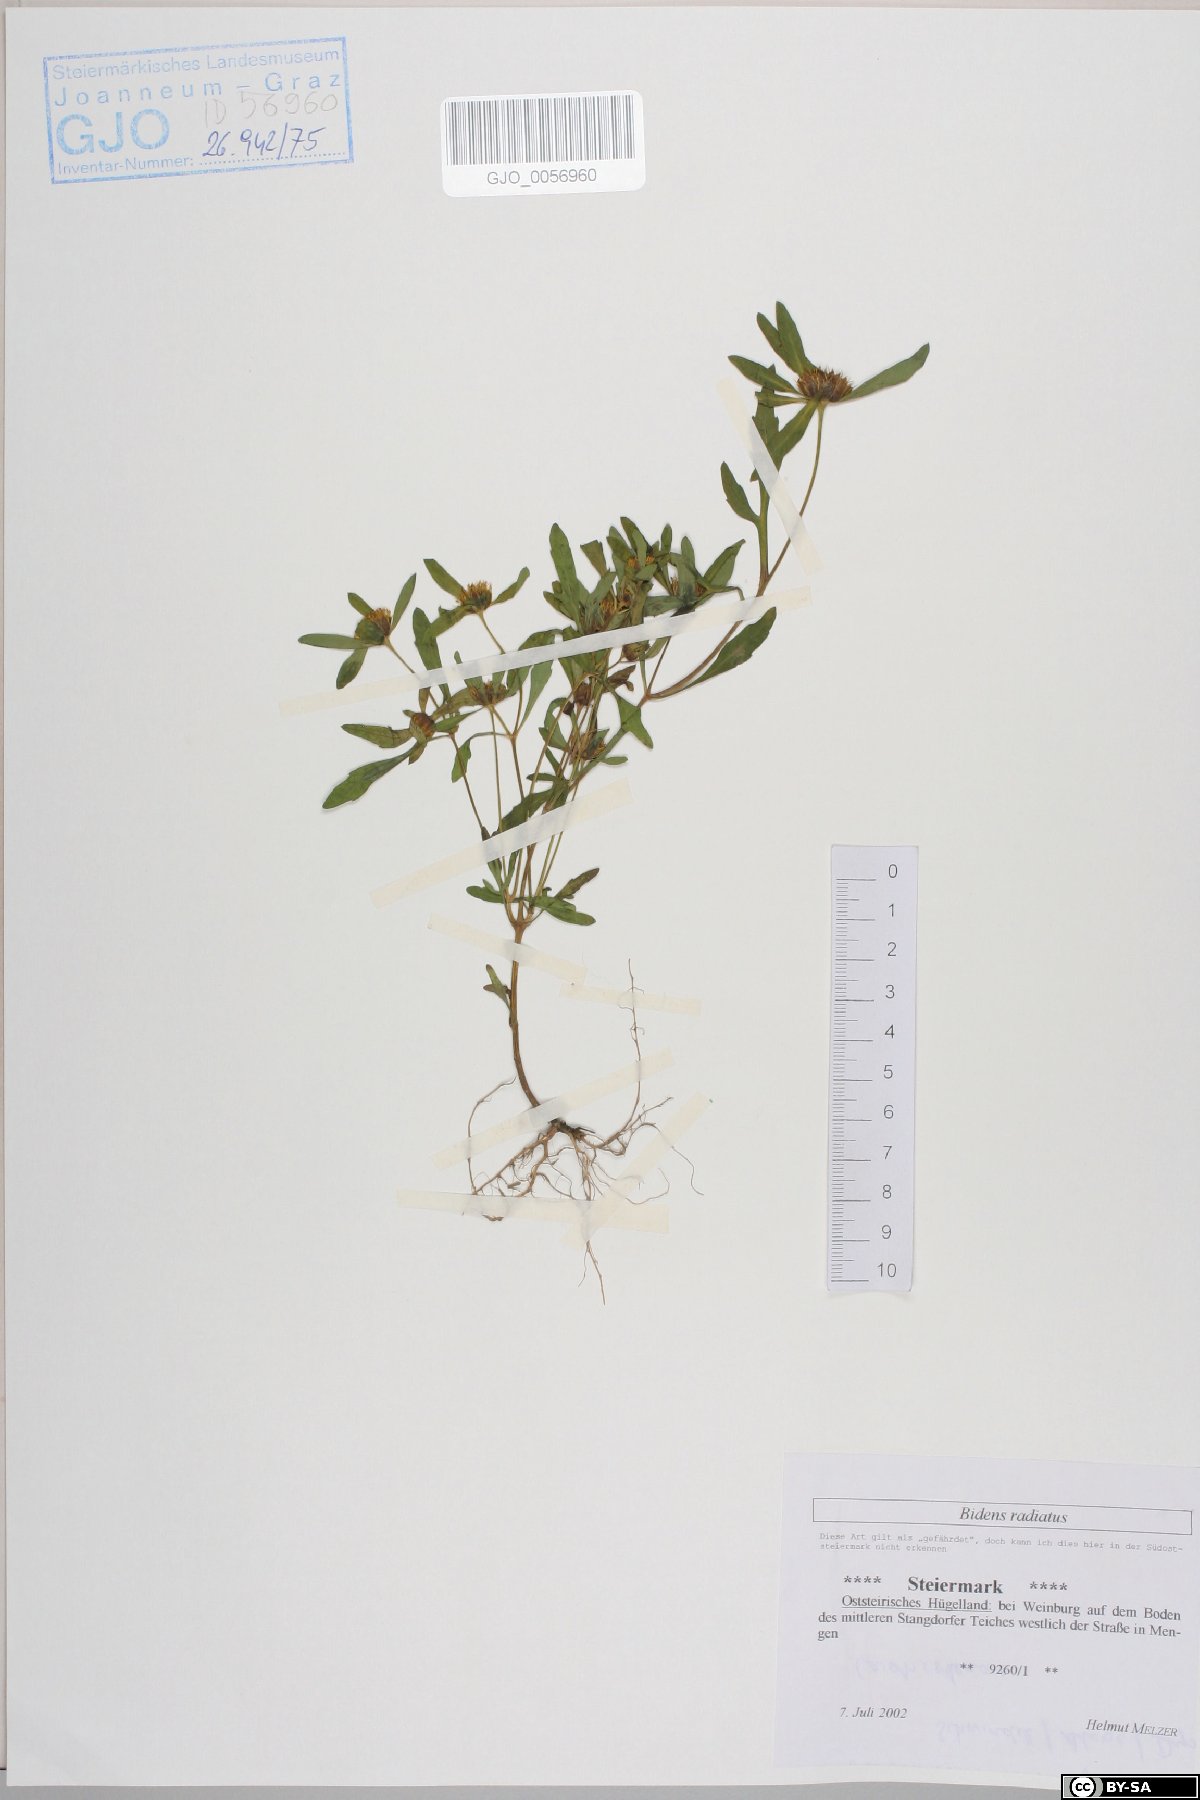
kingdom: Plantae
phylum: Tracheophyta
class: Magnoliopsida
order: Asterales
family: Asteraceae
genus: Bidens
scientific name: Bidens radiata
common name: Radiating bur-marigold
